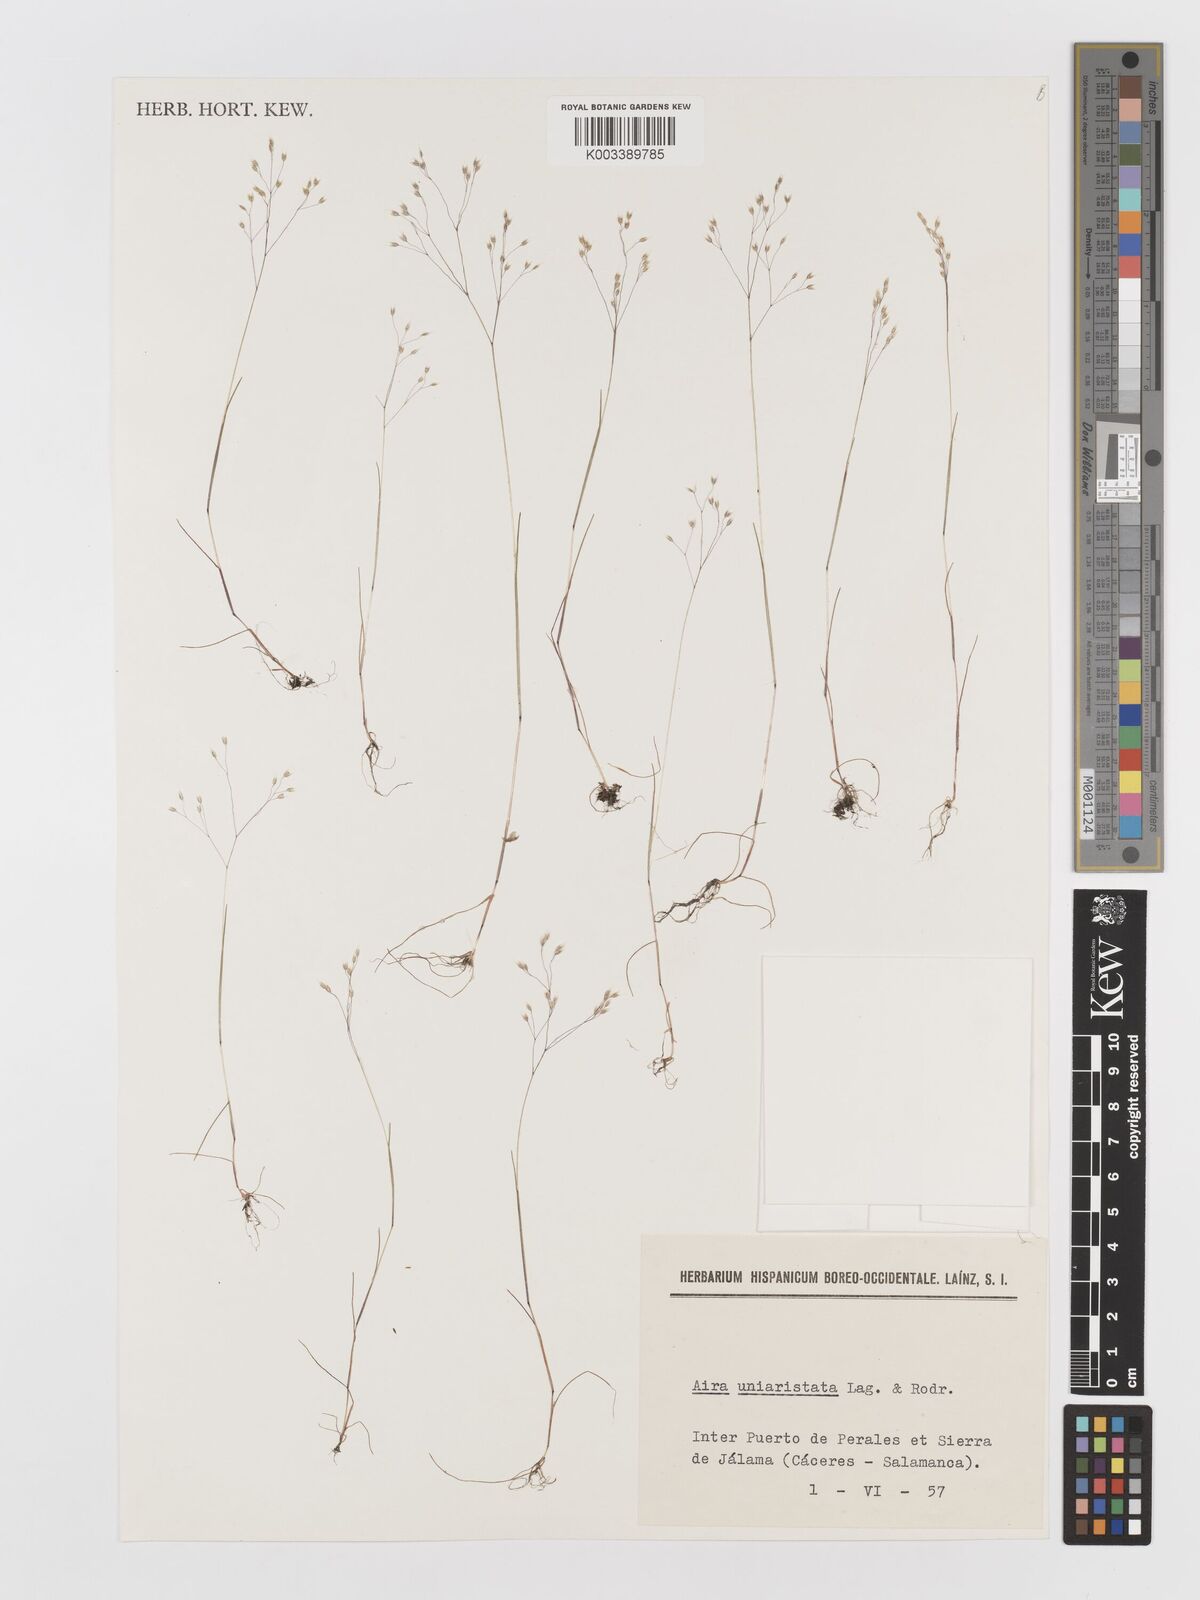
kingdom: Plantae
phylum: Tracheophyta
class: Liliopsida
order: Poales
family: Poaceae
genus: Aira
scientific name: Aira uniaristata
